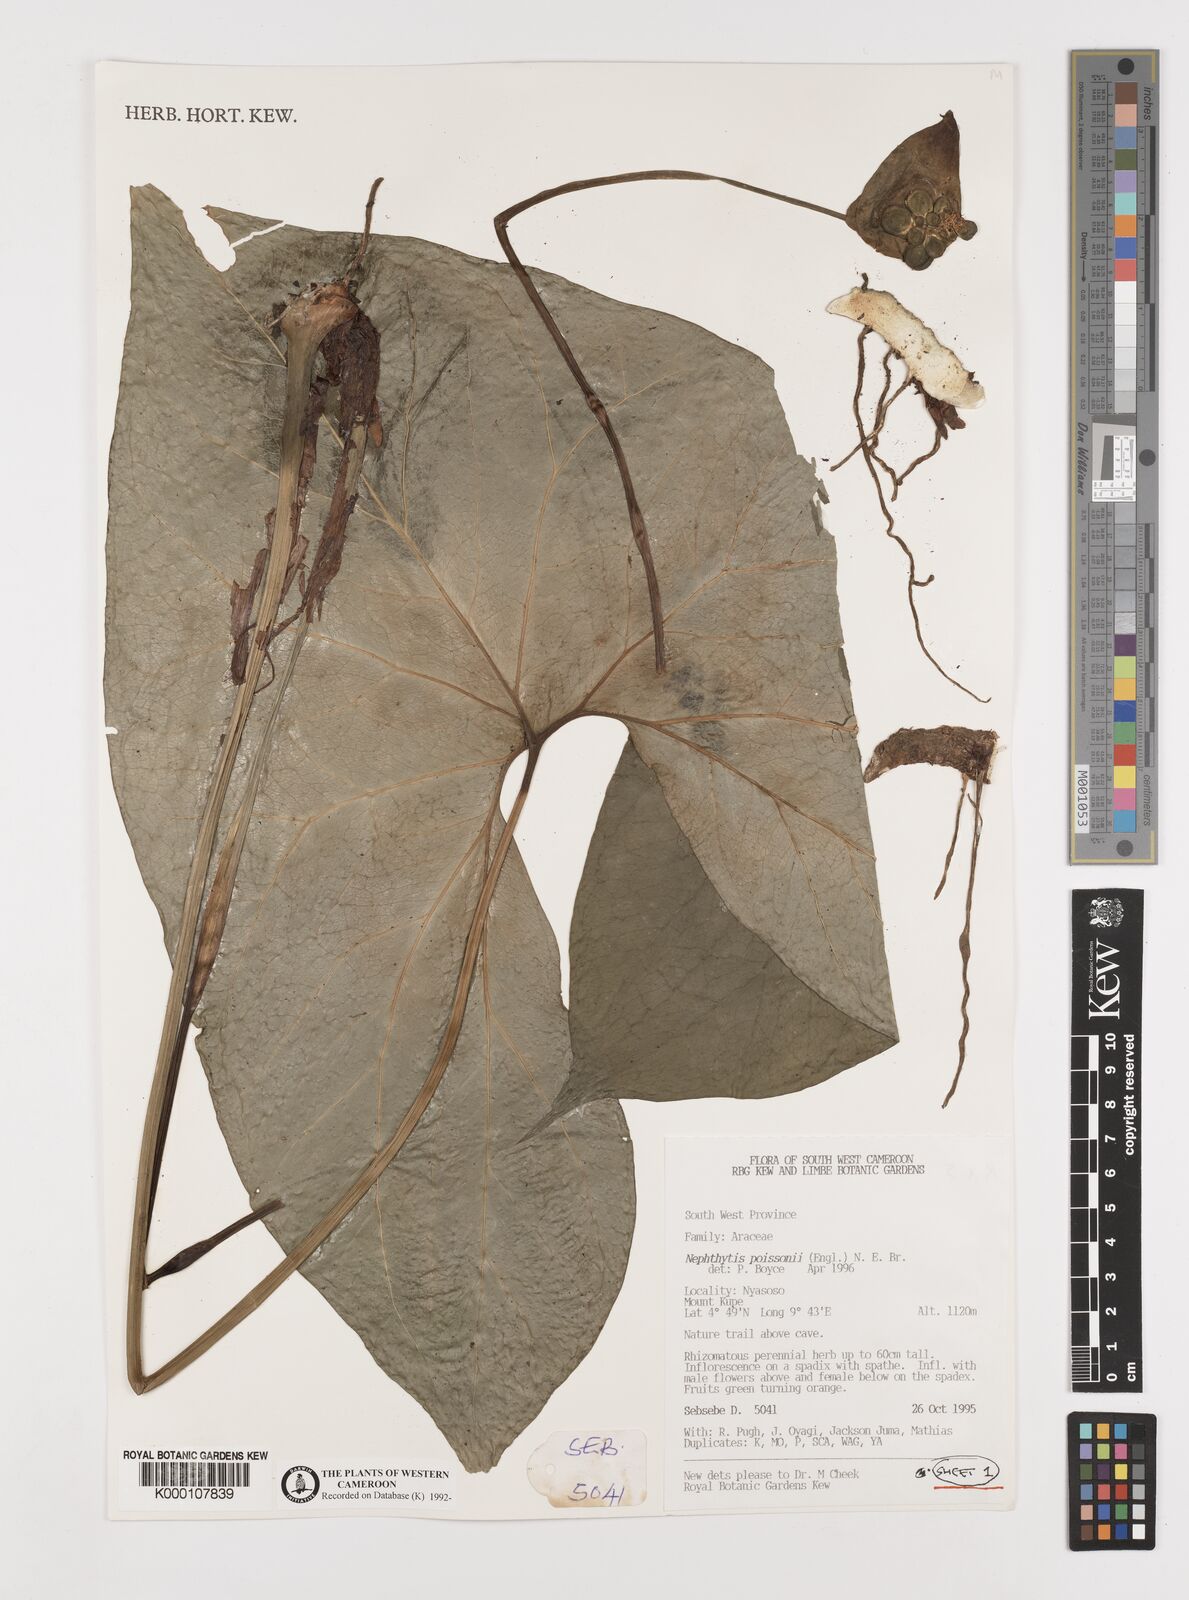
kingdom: Plantae
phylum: Tracheophyta
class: Liliopsida
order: Alismatales
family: Araceae
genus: Nephthytis
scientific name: Nephthytis poissonii
